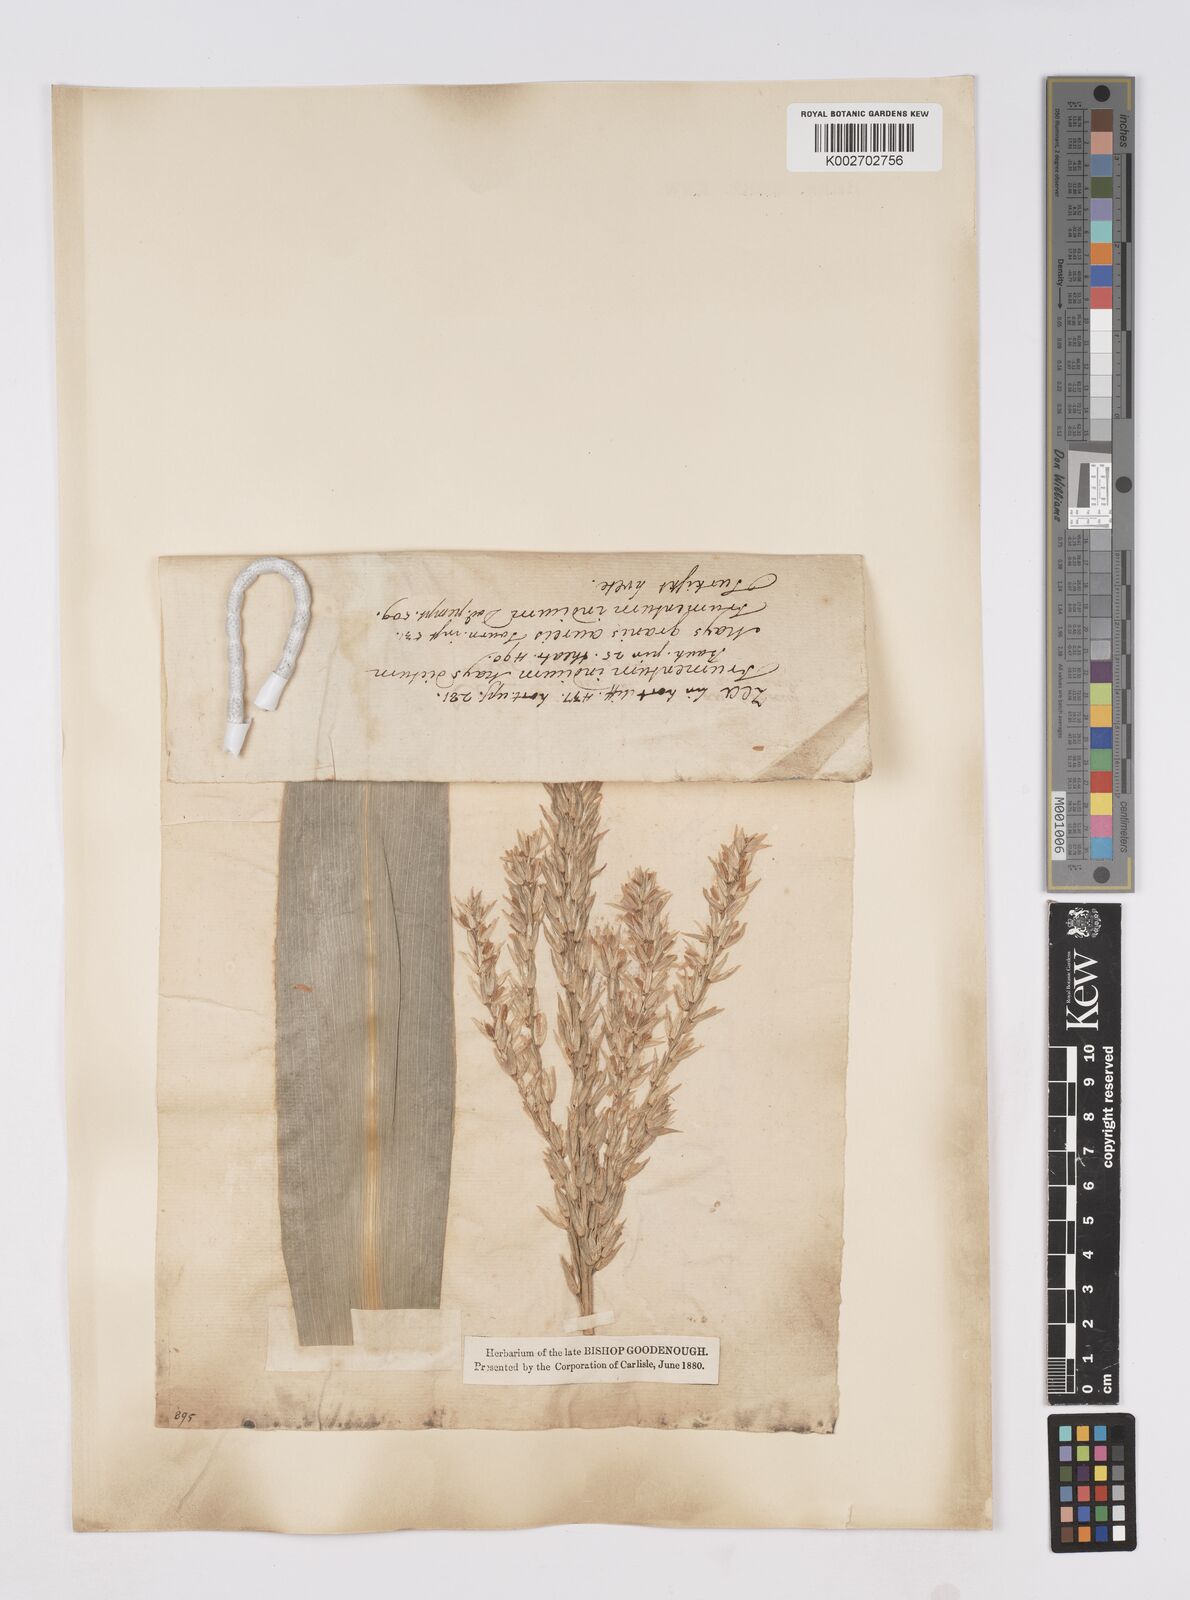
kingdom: Plantae
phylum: Tracheophyta
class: Liliopsida
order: Poales
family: Poaceae
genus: Zea
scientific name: Zea mays
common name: Maize
